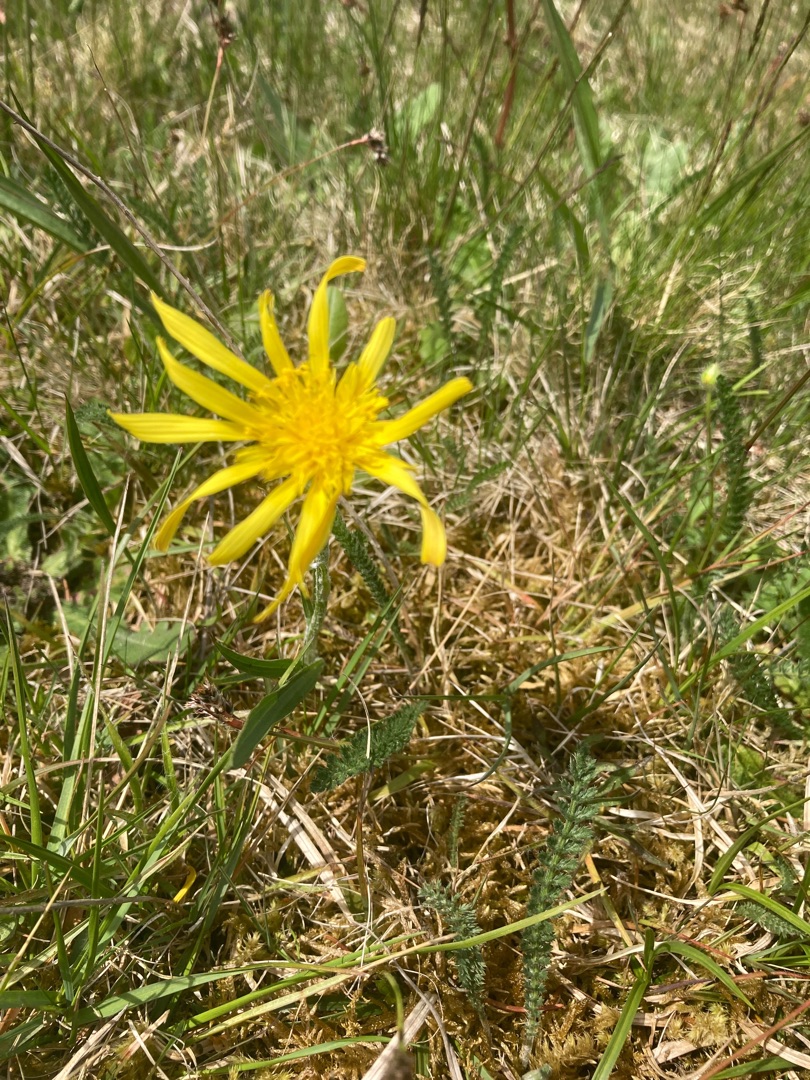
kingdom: Plantae
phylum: Tracheophyta
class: Magnoliopsida
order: Asterales
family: Asteraceae
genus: Scorzonera
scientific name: Scorzonera humilis
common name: Lav skorsoner
